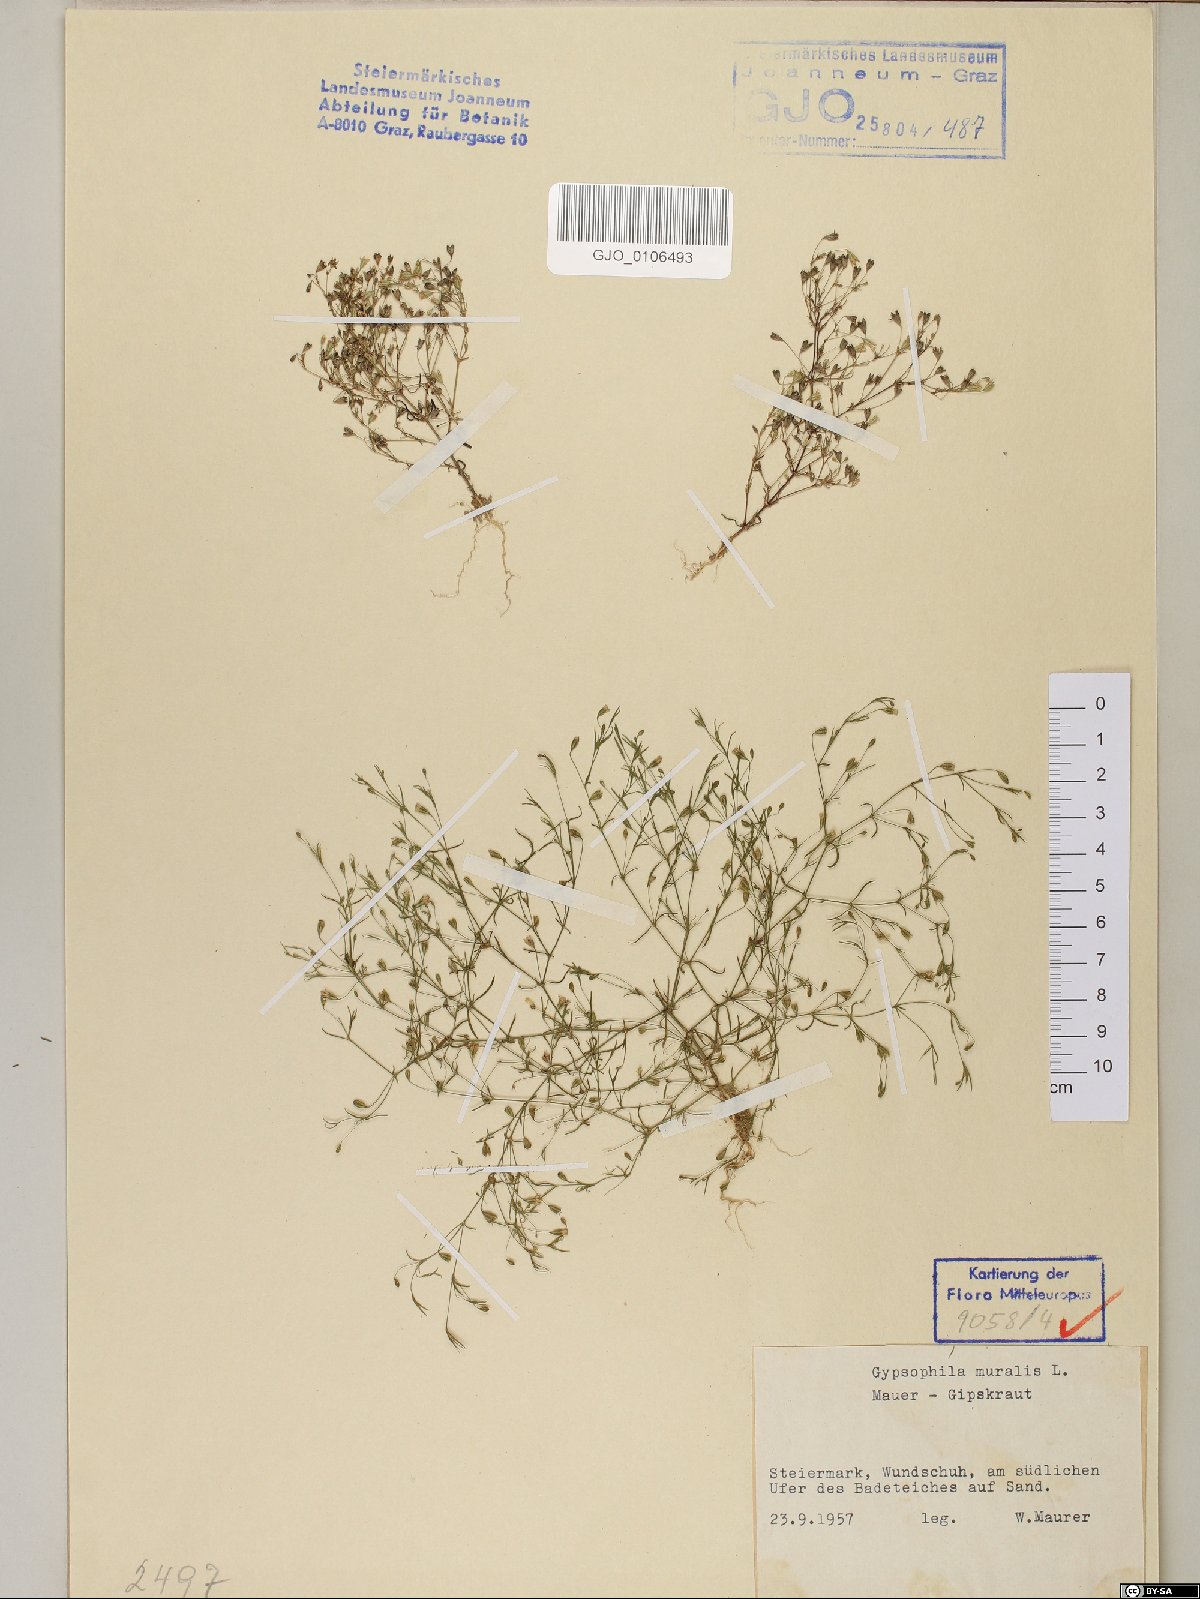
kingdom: Plantae
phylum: Tracheophyta
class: Magnoliopsida
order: Caryophyllales
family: Caryophyllaceae
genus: Psammophiliella
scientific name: Psammophiliella muralis
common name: Cushion baby's-breath
